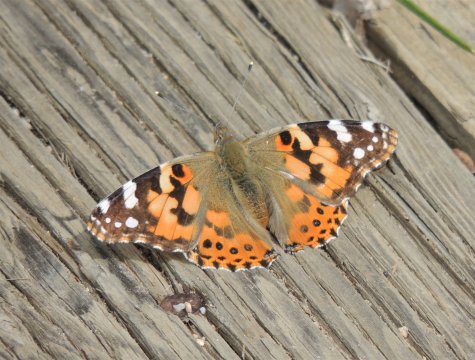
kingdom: Animalia
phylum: Arthropoda
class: Insecta
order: Lepidoptera
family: Nymphalidae
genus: Vanessa
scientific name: Vanessa cardui
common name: Painted Lady
